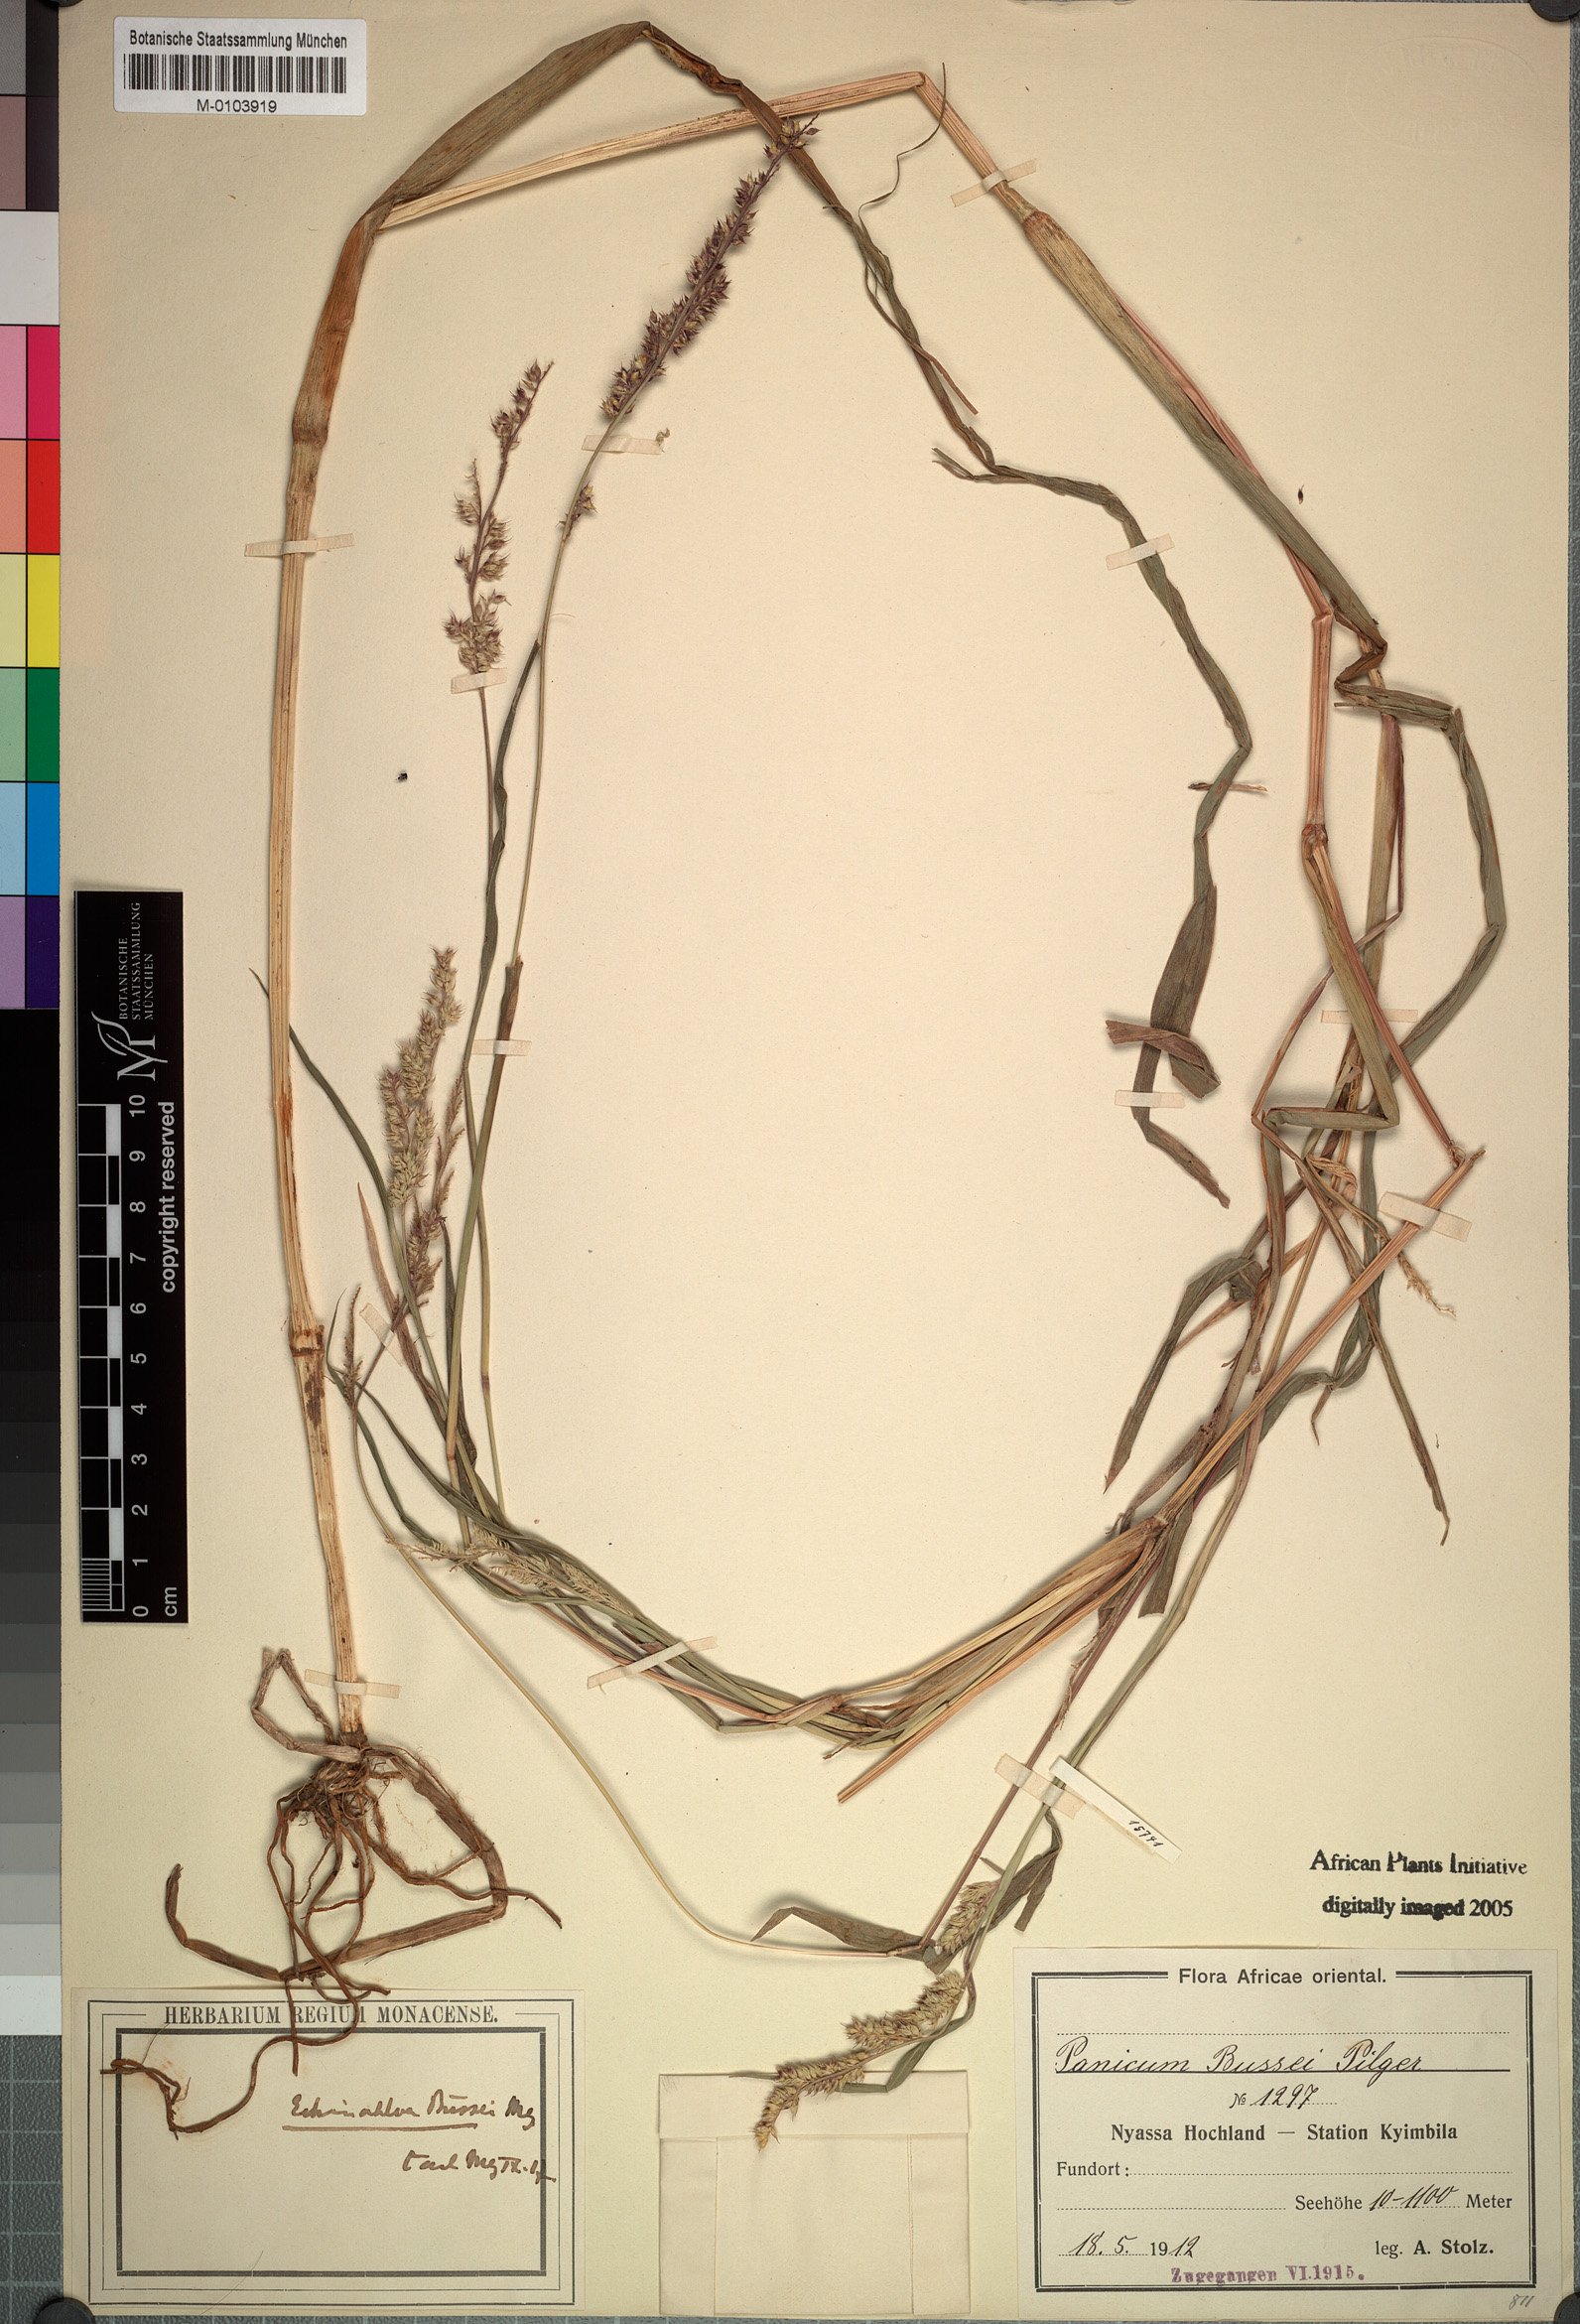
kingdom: Plantae
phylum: Tracheophyta
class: Liliopsida
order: Poales
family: Poaceae
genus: Echinochloa
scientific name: Echinochloa crus-pavonis
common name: Gulf cockspur grass
